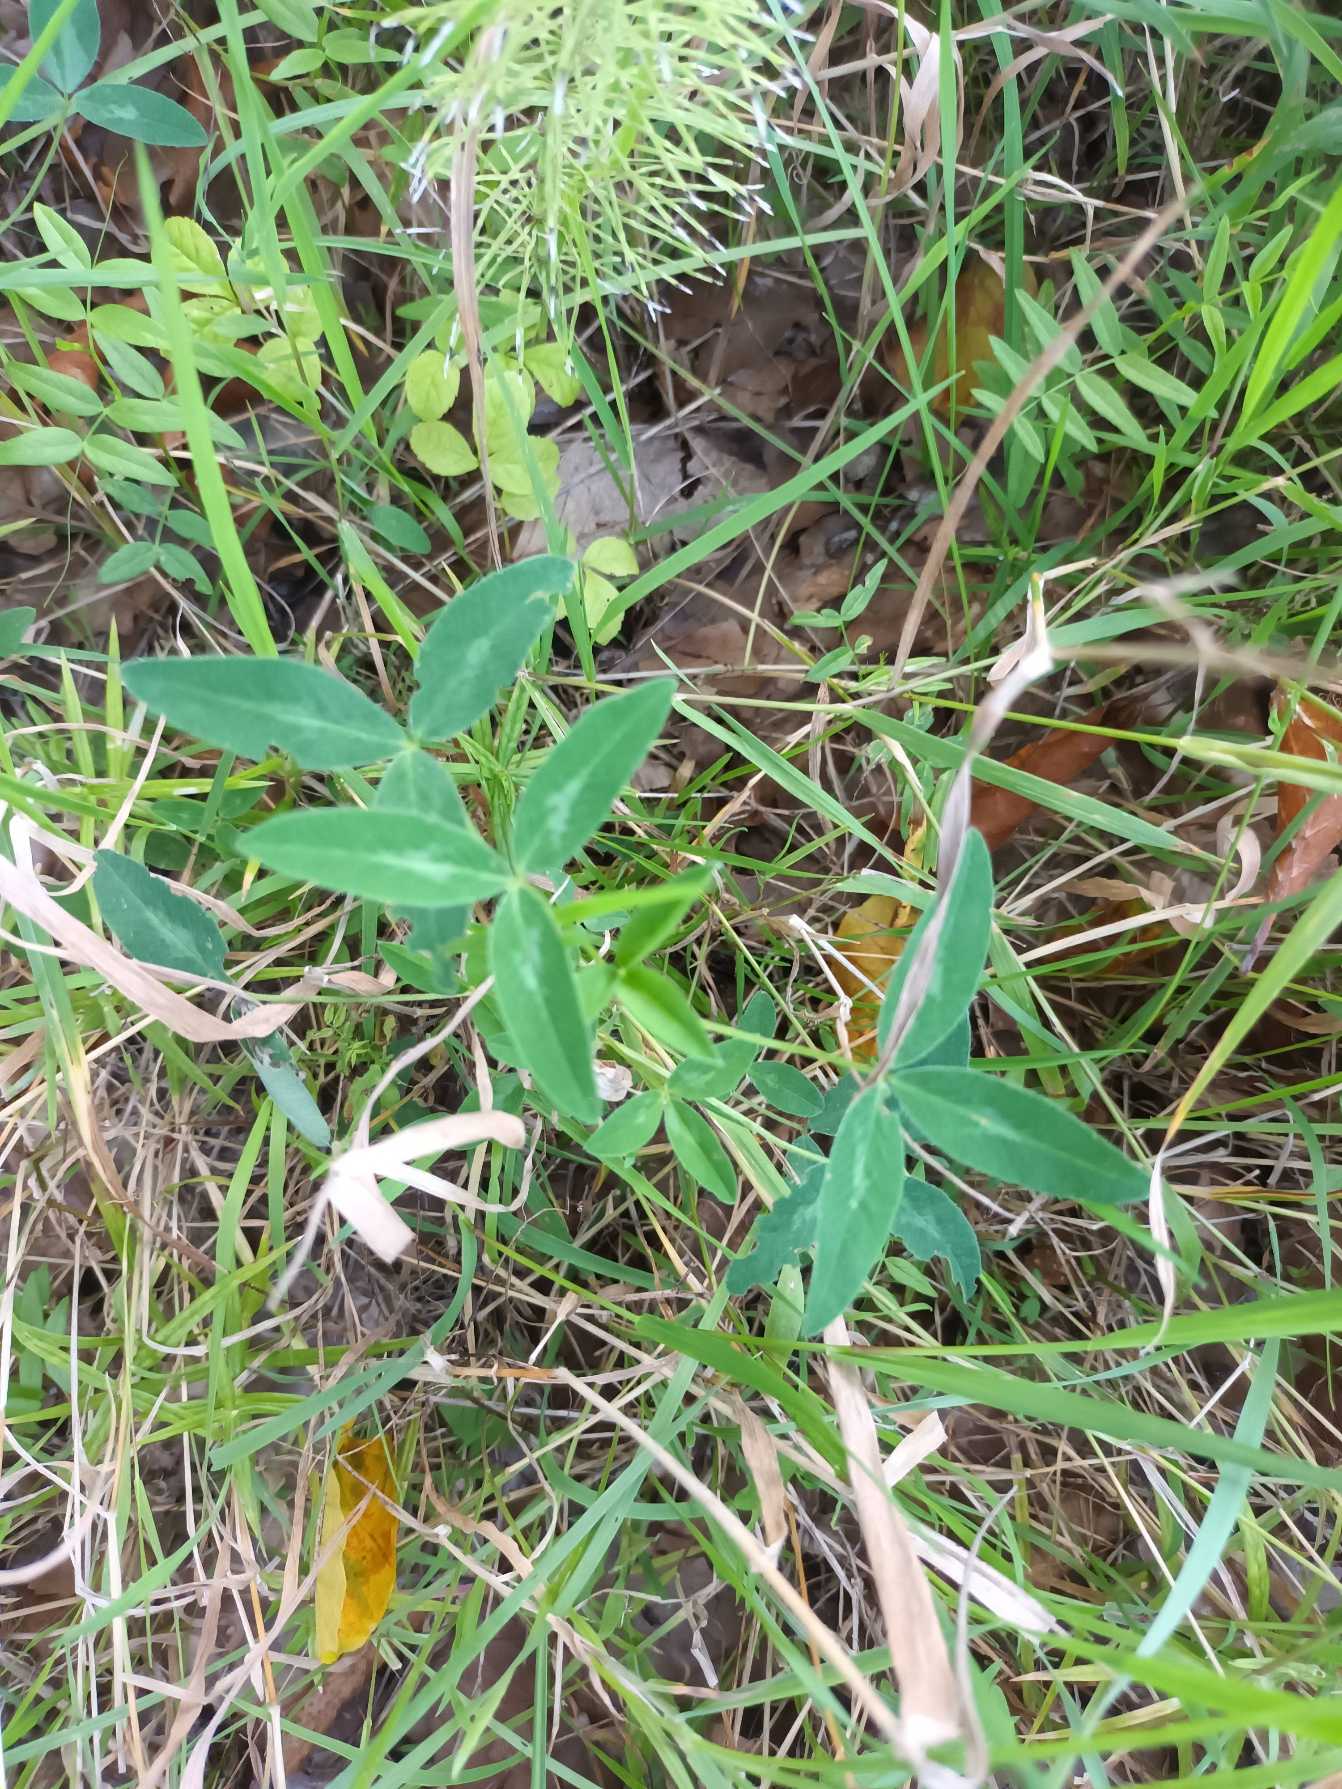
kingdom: Plantae
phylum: Tracheophyta
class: Magnoliopsida
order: Fabales
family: Fabaceae
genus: Trifolium
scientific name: Trifolium medium
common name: Bugtet kløver
